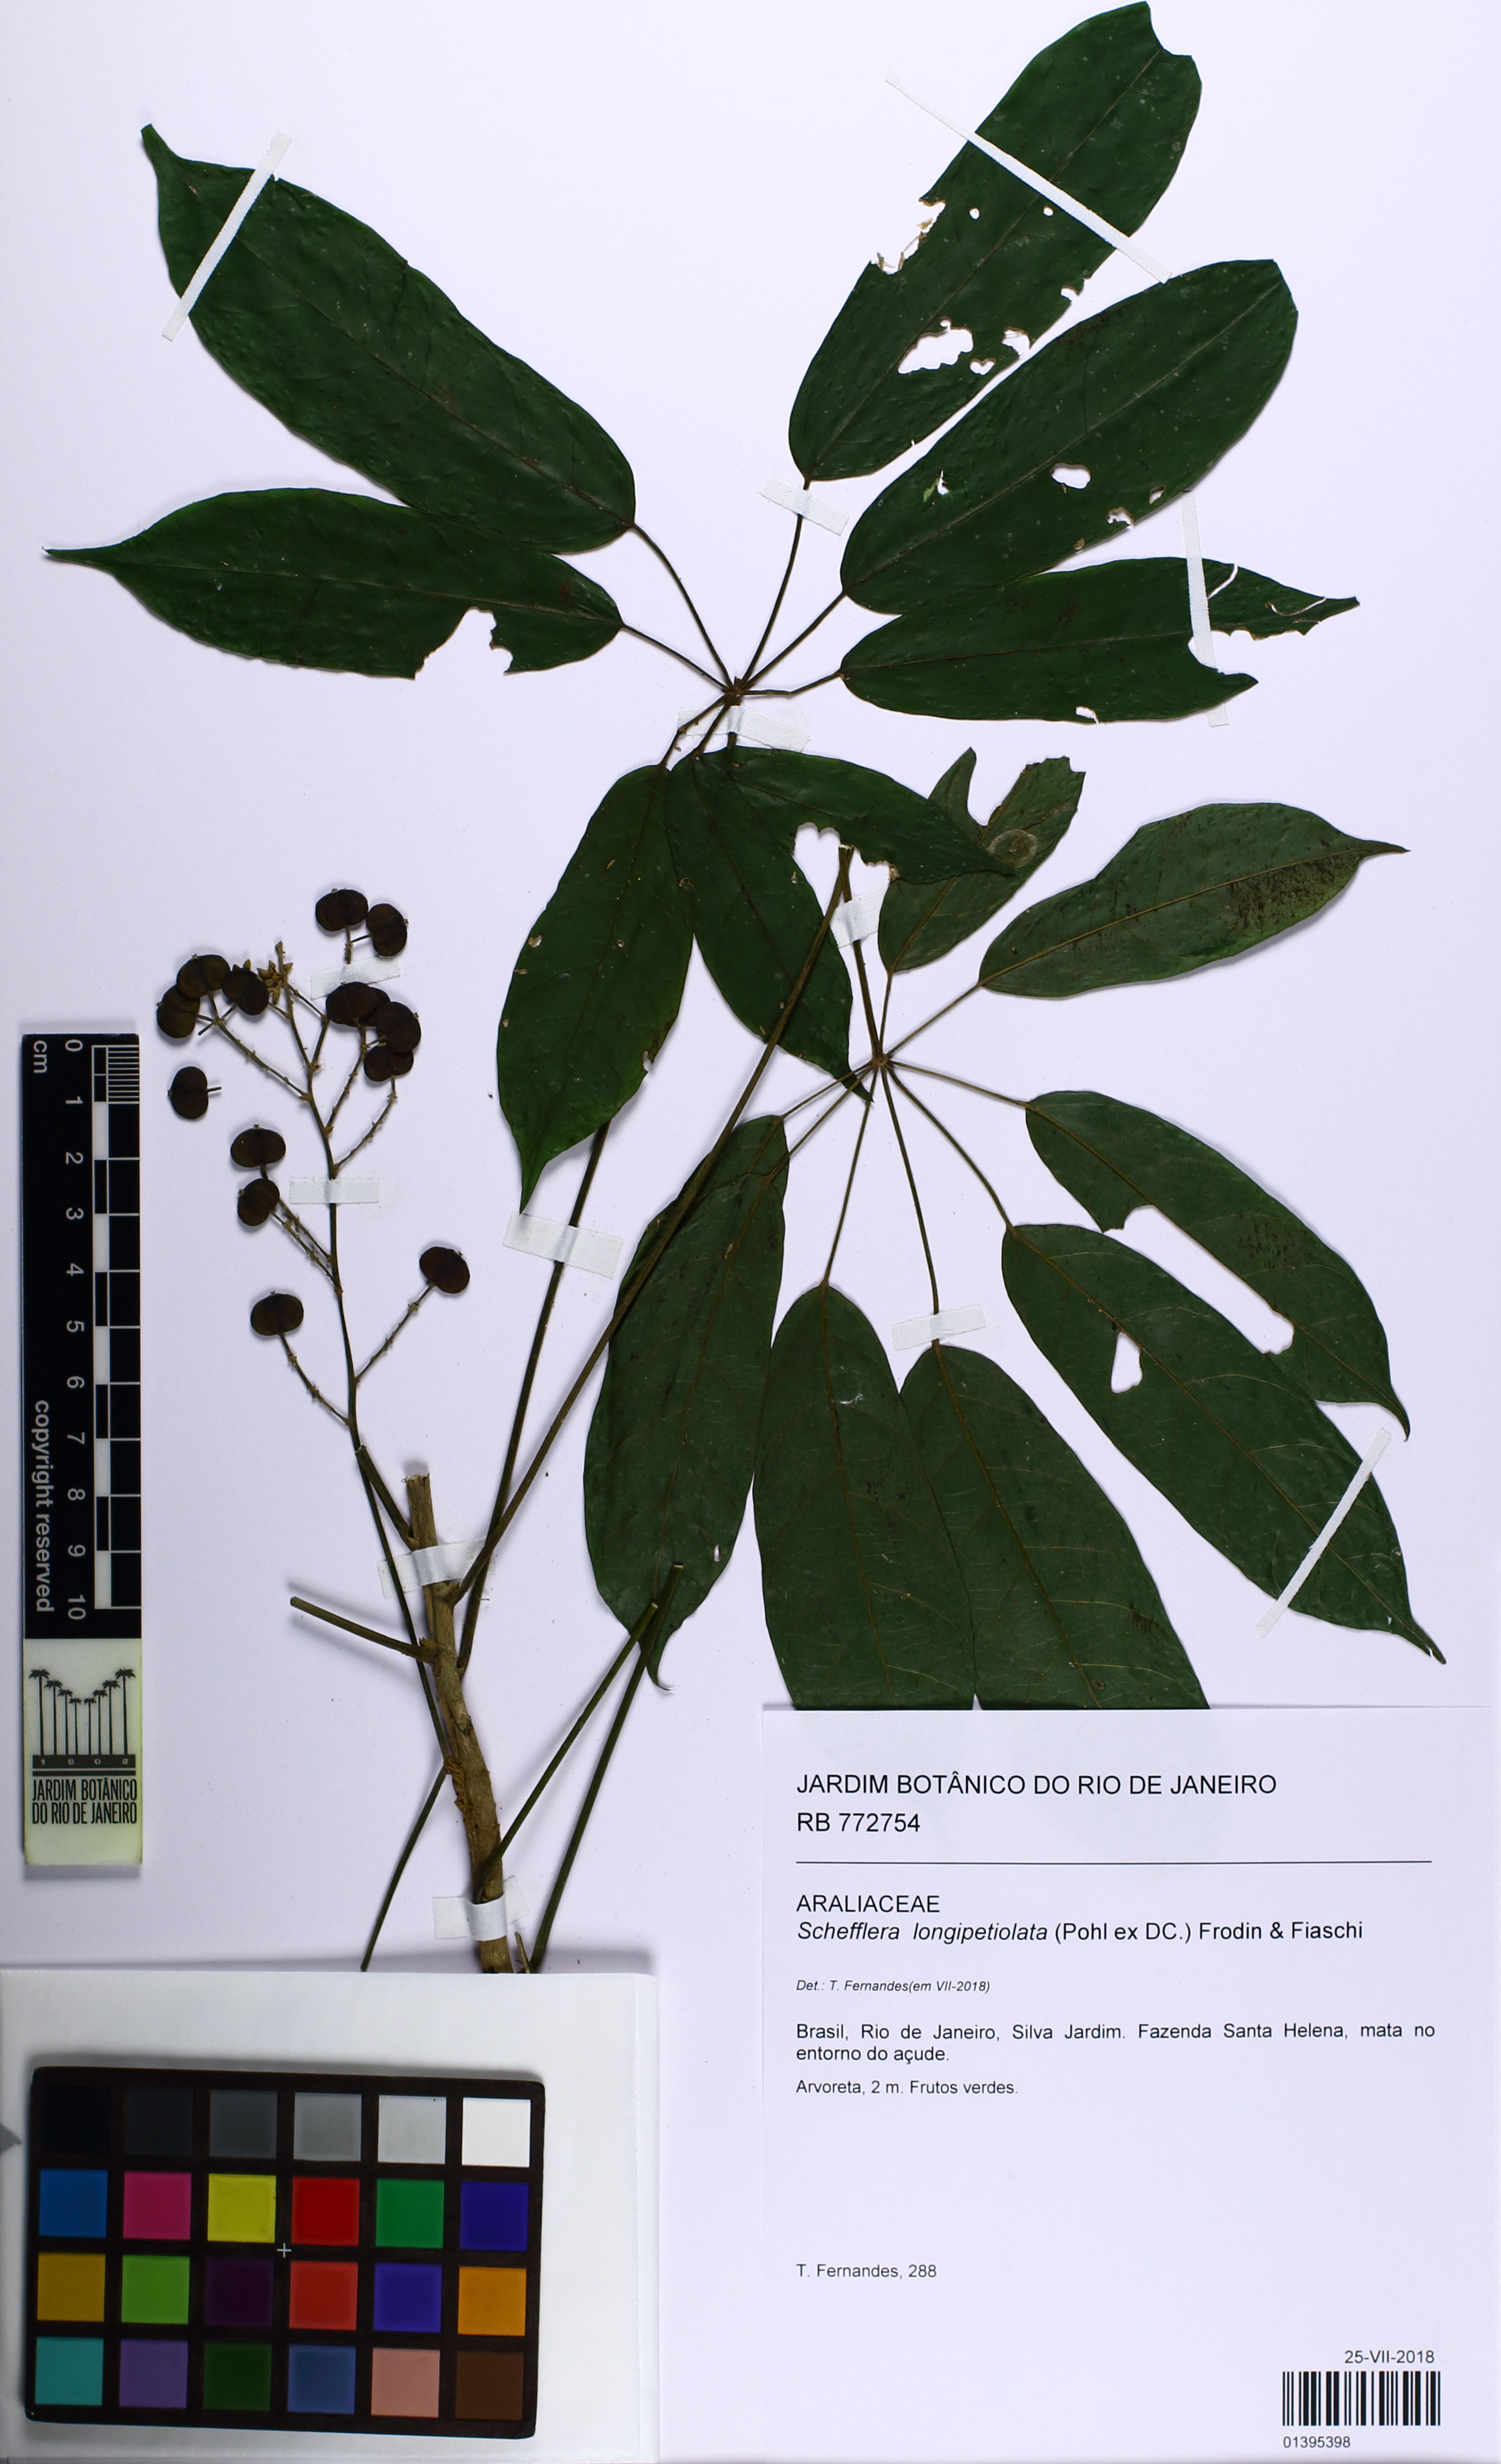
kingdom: Plantae
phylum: Tracheophyta
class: Magnoliopsida
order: Apiales
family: Araliaceae
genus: Didymopanax
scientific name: Didymopanax longepetiolatus
